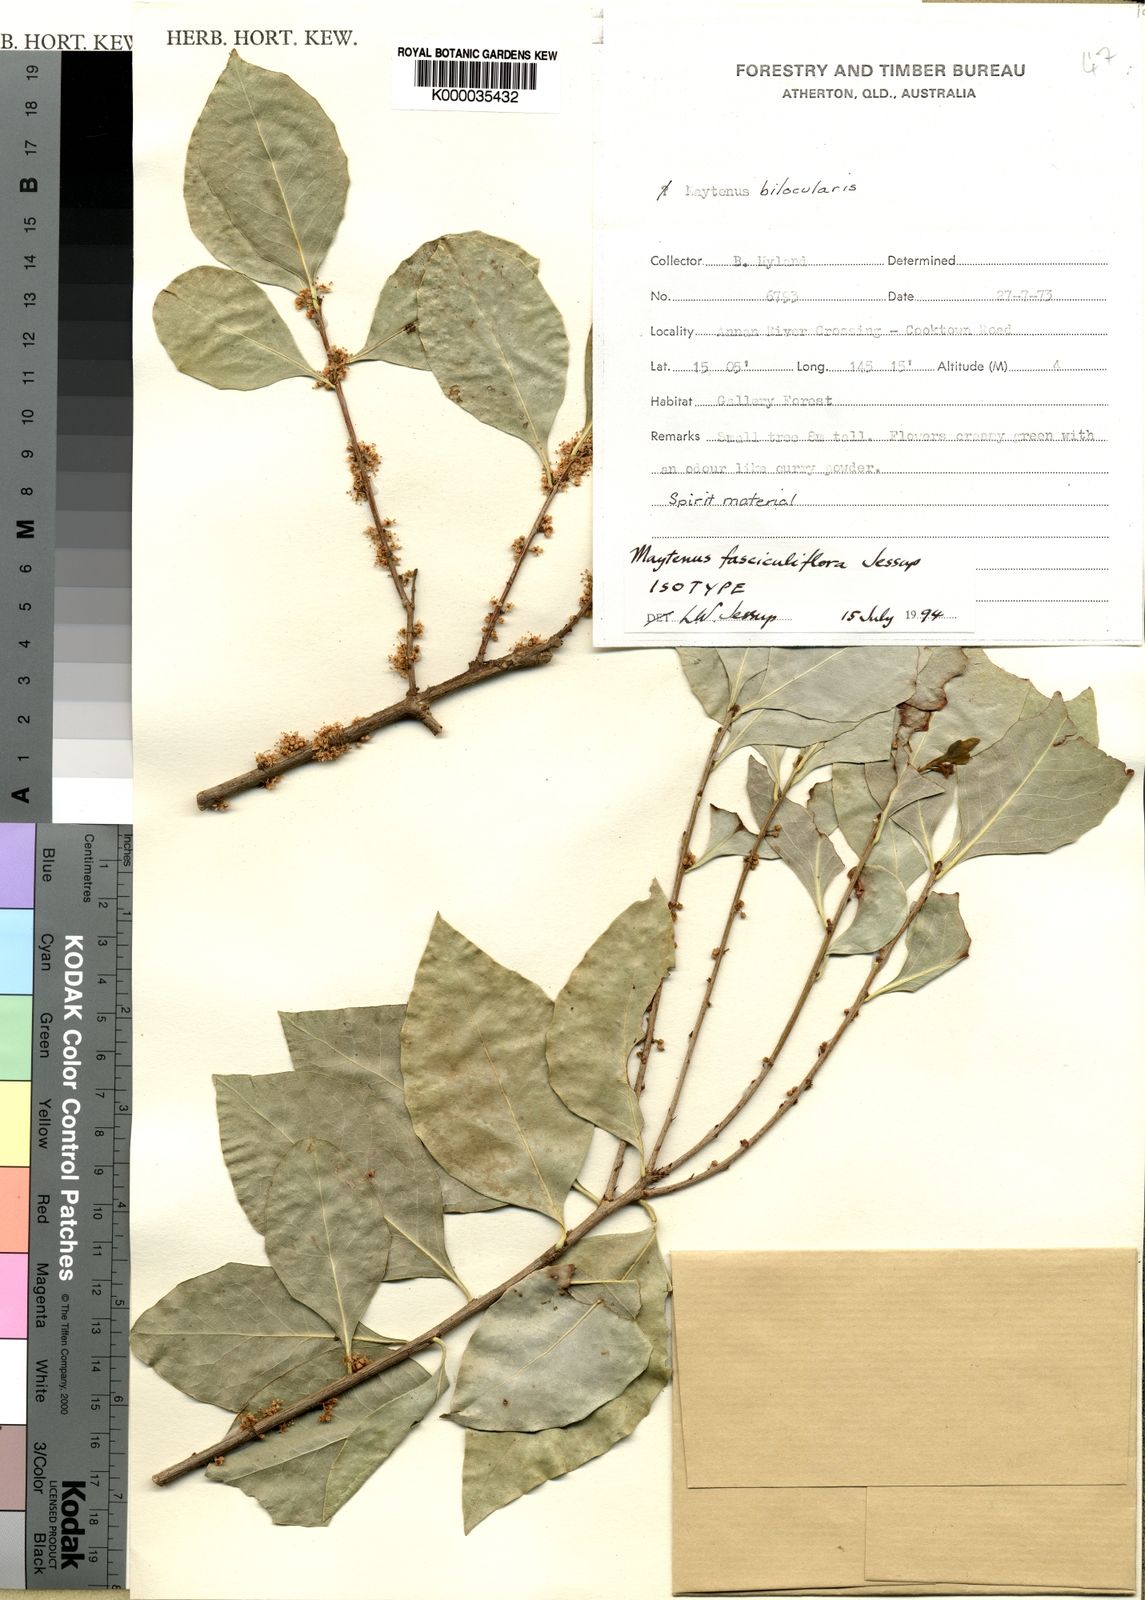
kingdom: Plantae
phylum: Tracheophyta
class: Magnoliopsida
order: Celastrales
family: Celastraceae
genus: Denhamia
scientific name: Denhamia fasciculiflora
